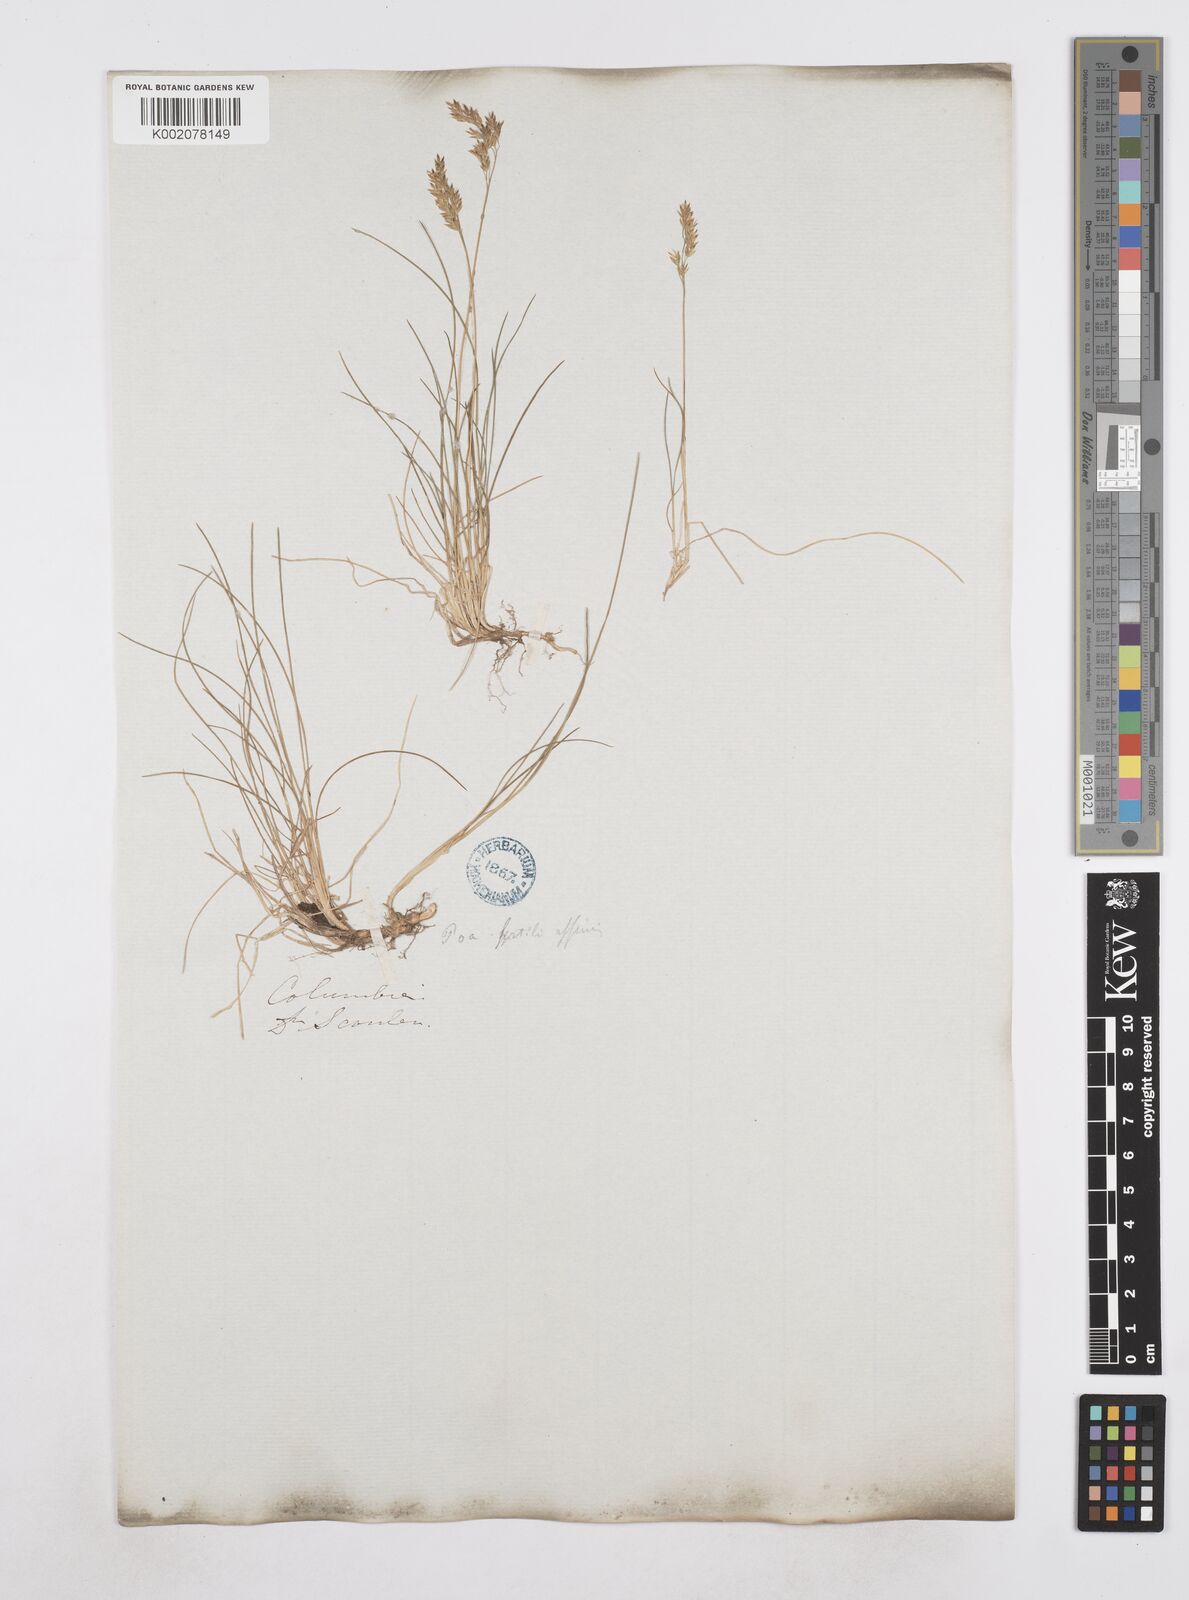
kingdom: Plantae
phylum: Tracheophyta
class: Liliopsida
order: Poales
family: Poaceae
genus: Poa
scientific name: Poa
